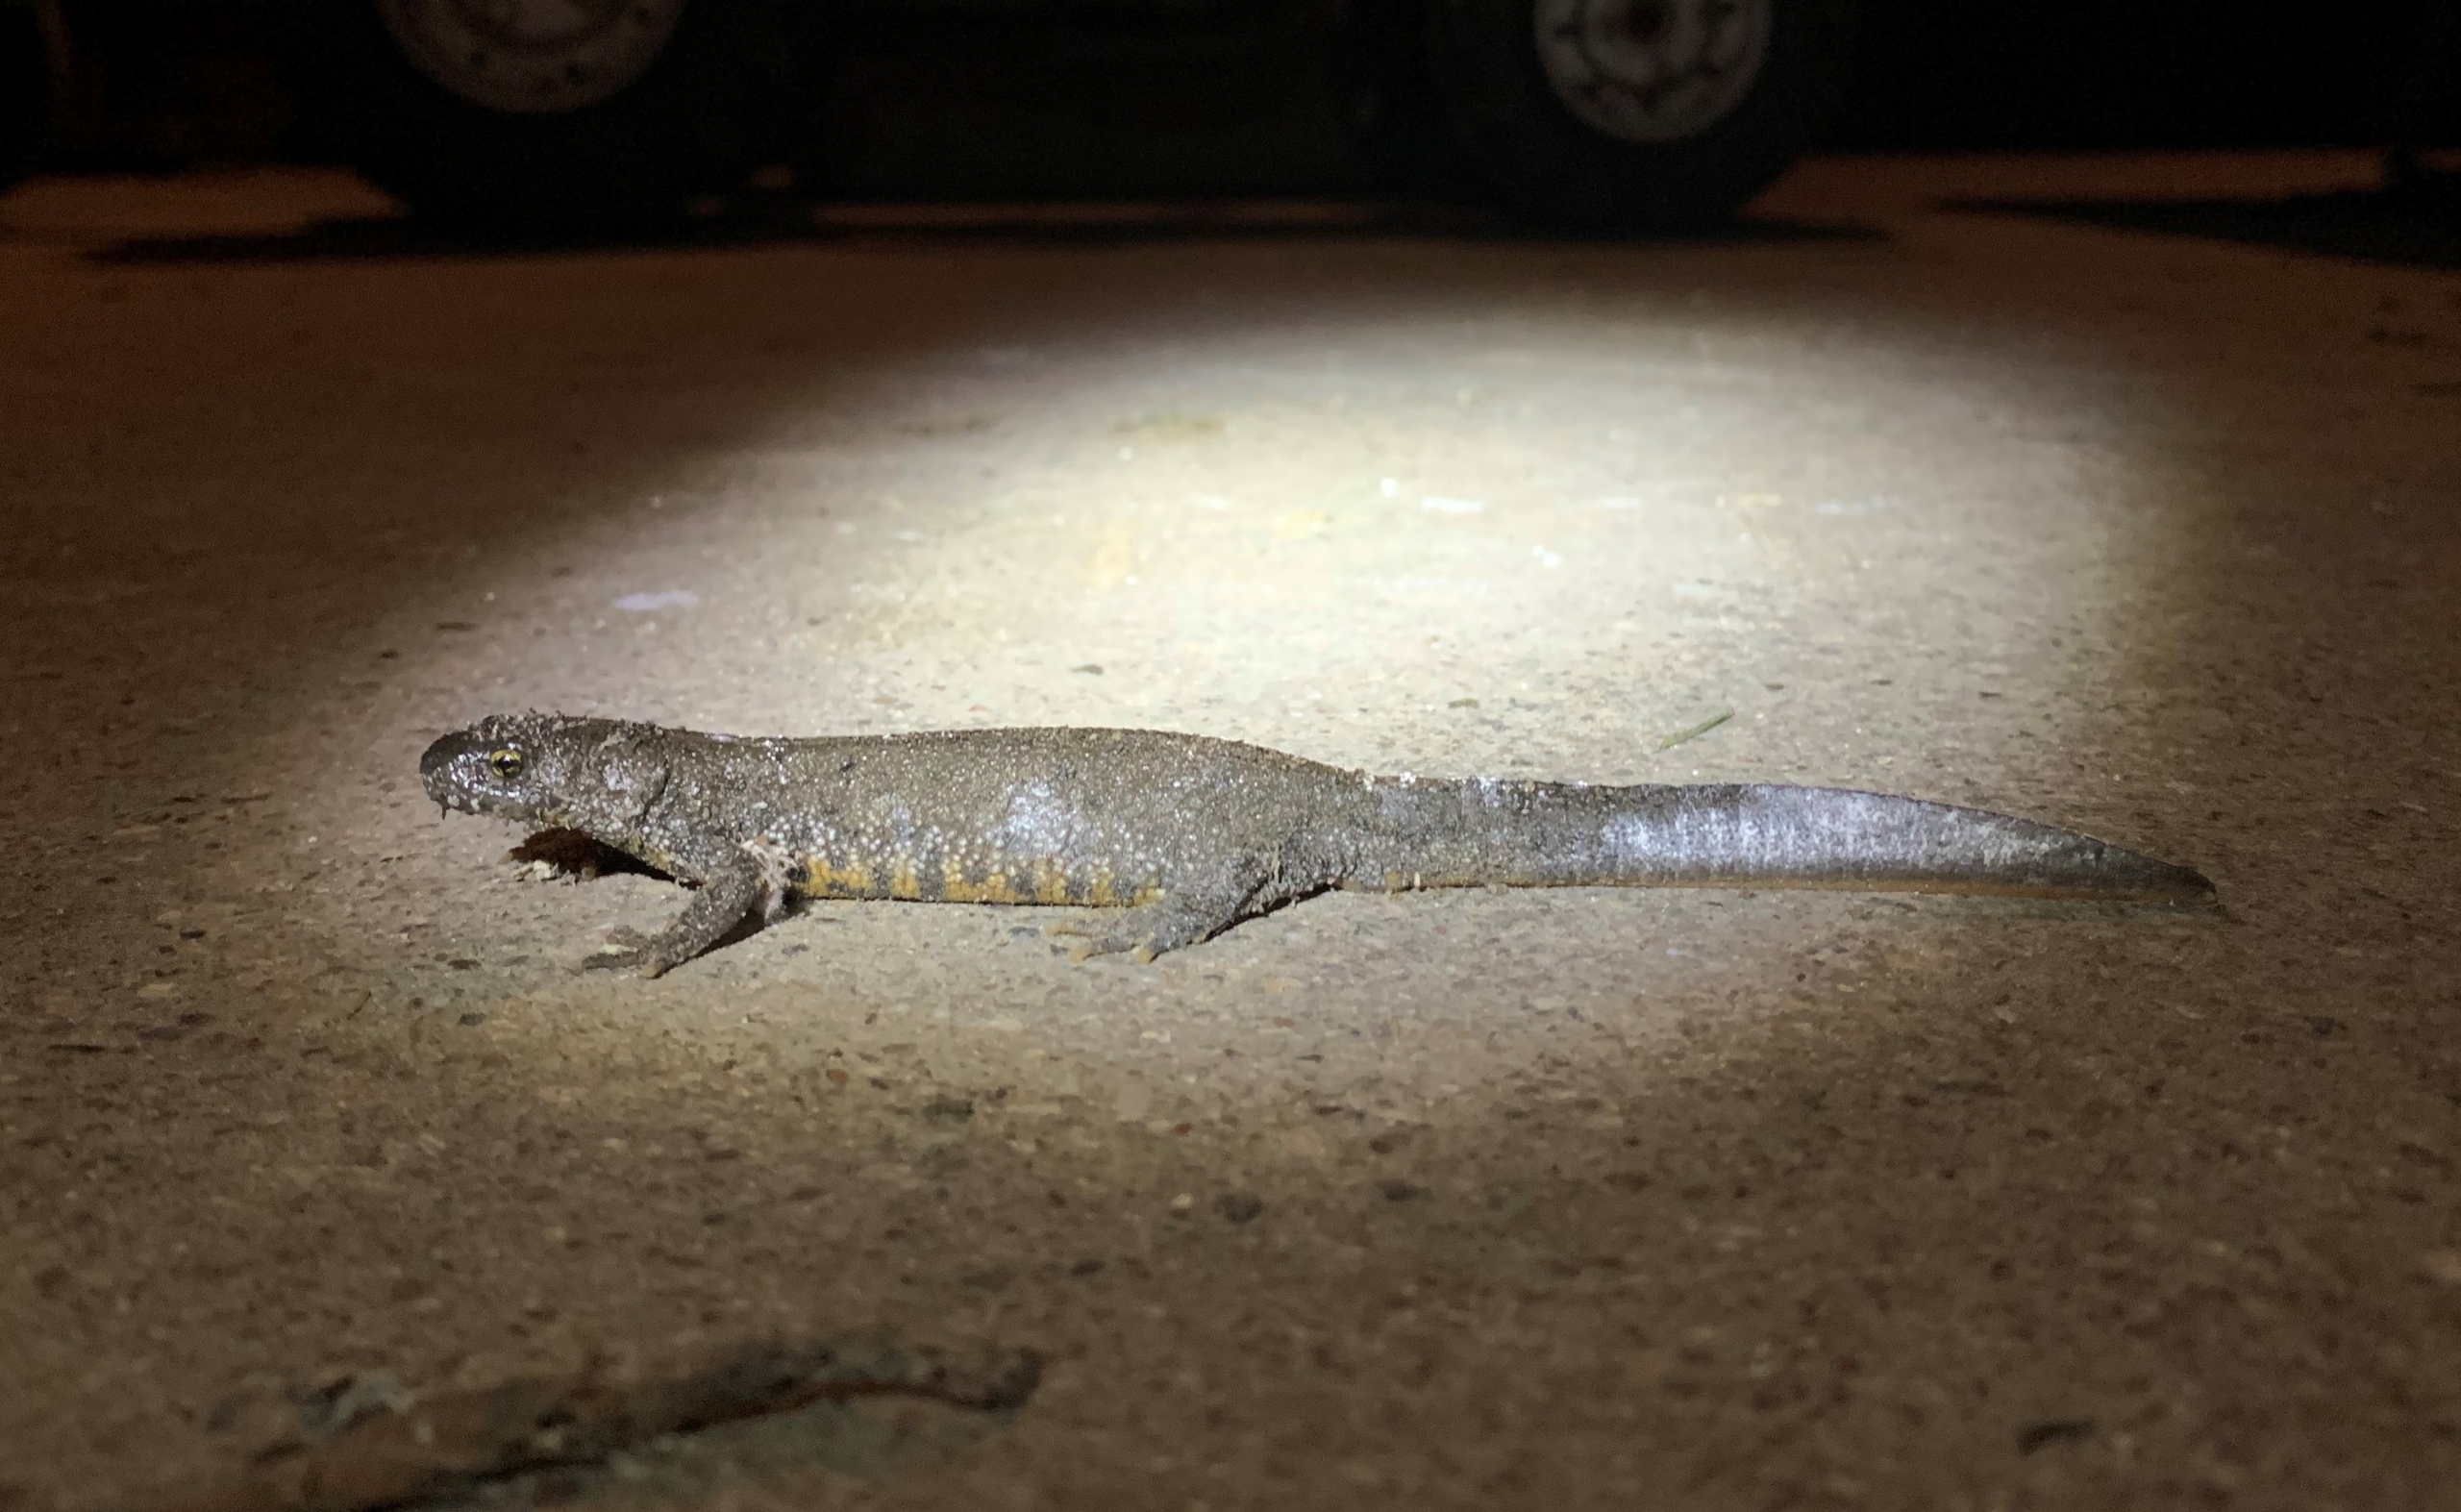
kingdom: Animalia
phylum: Chordata
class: Amphibia
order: Caudata
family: Salamandridae
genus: Triturus
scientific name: Triturus cristatus
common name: Stor vandsalamander
